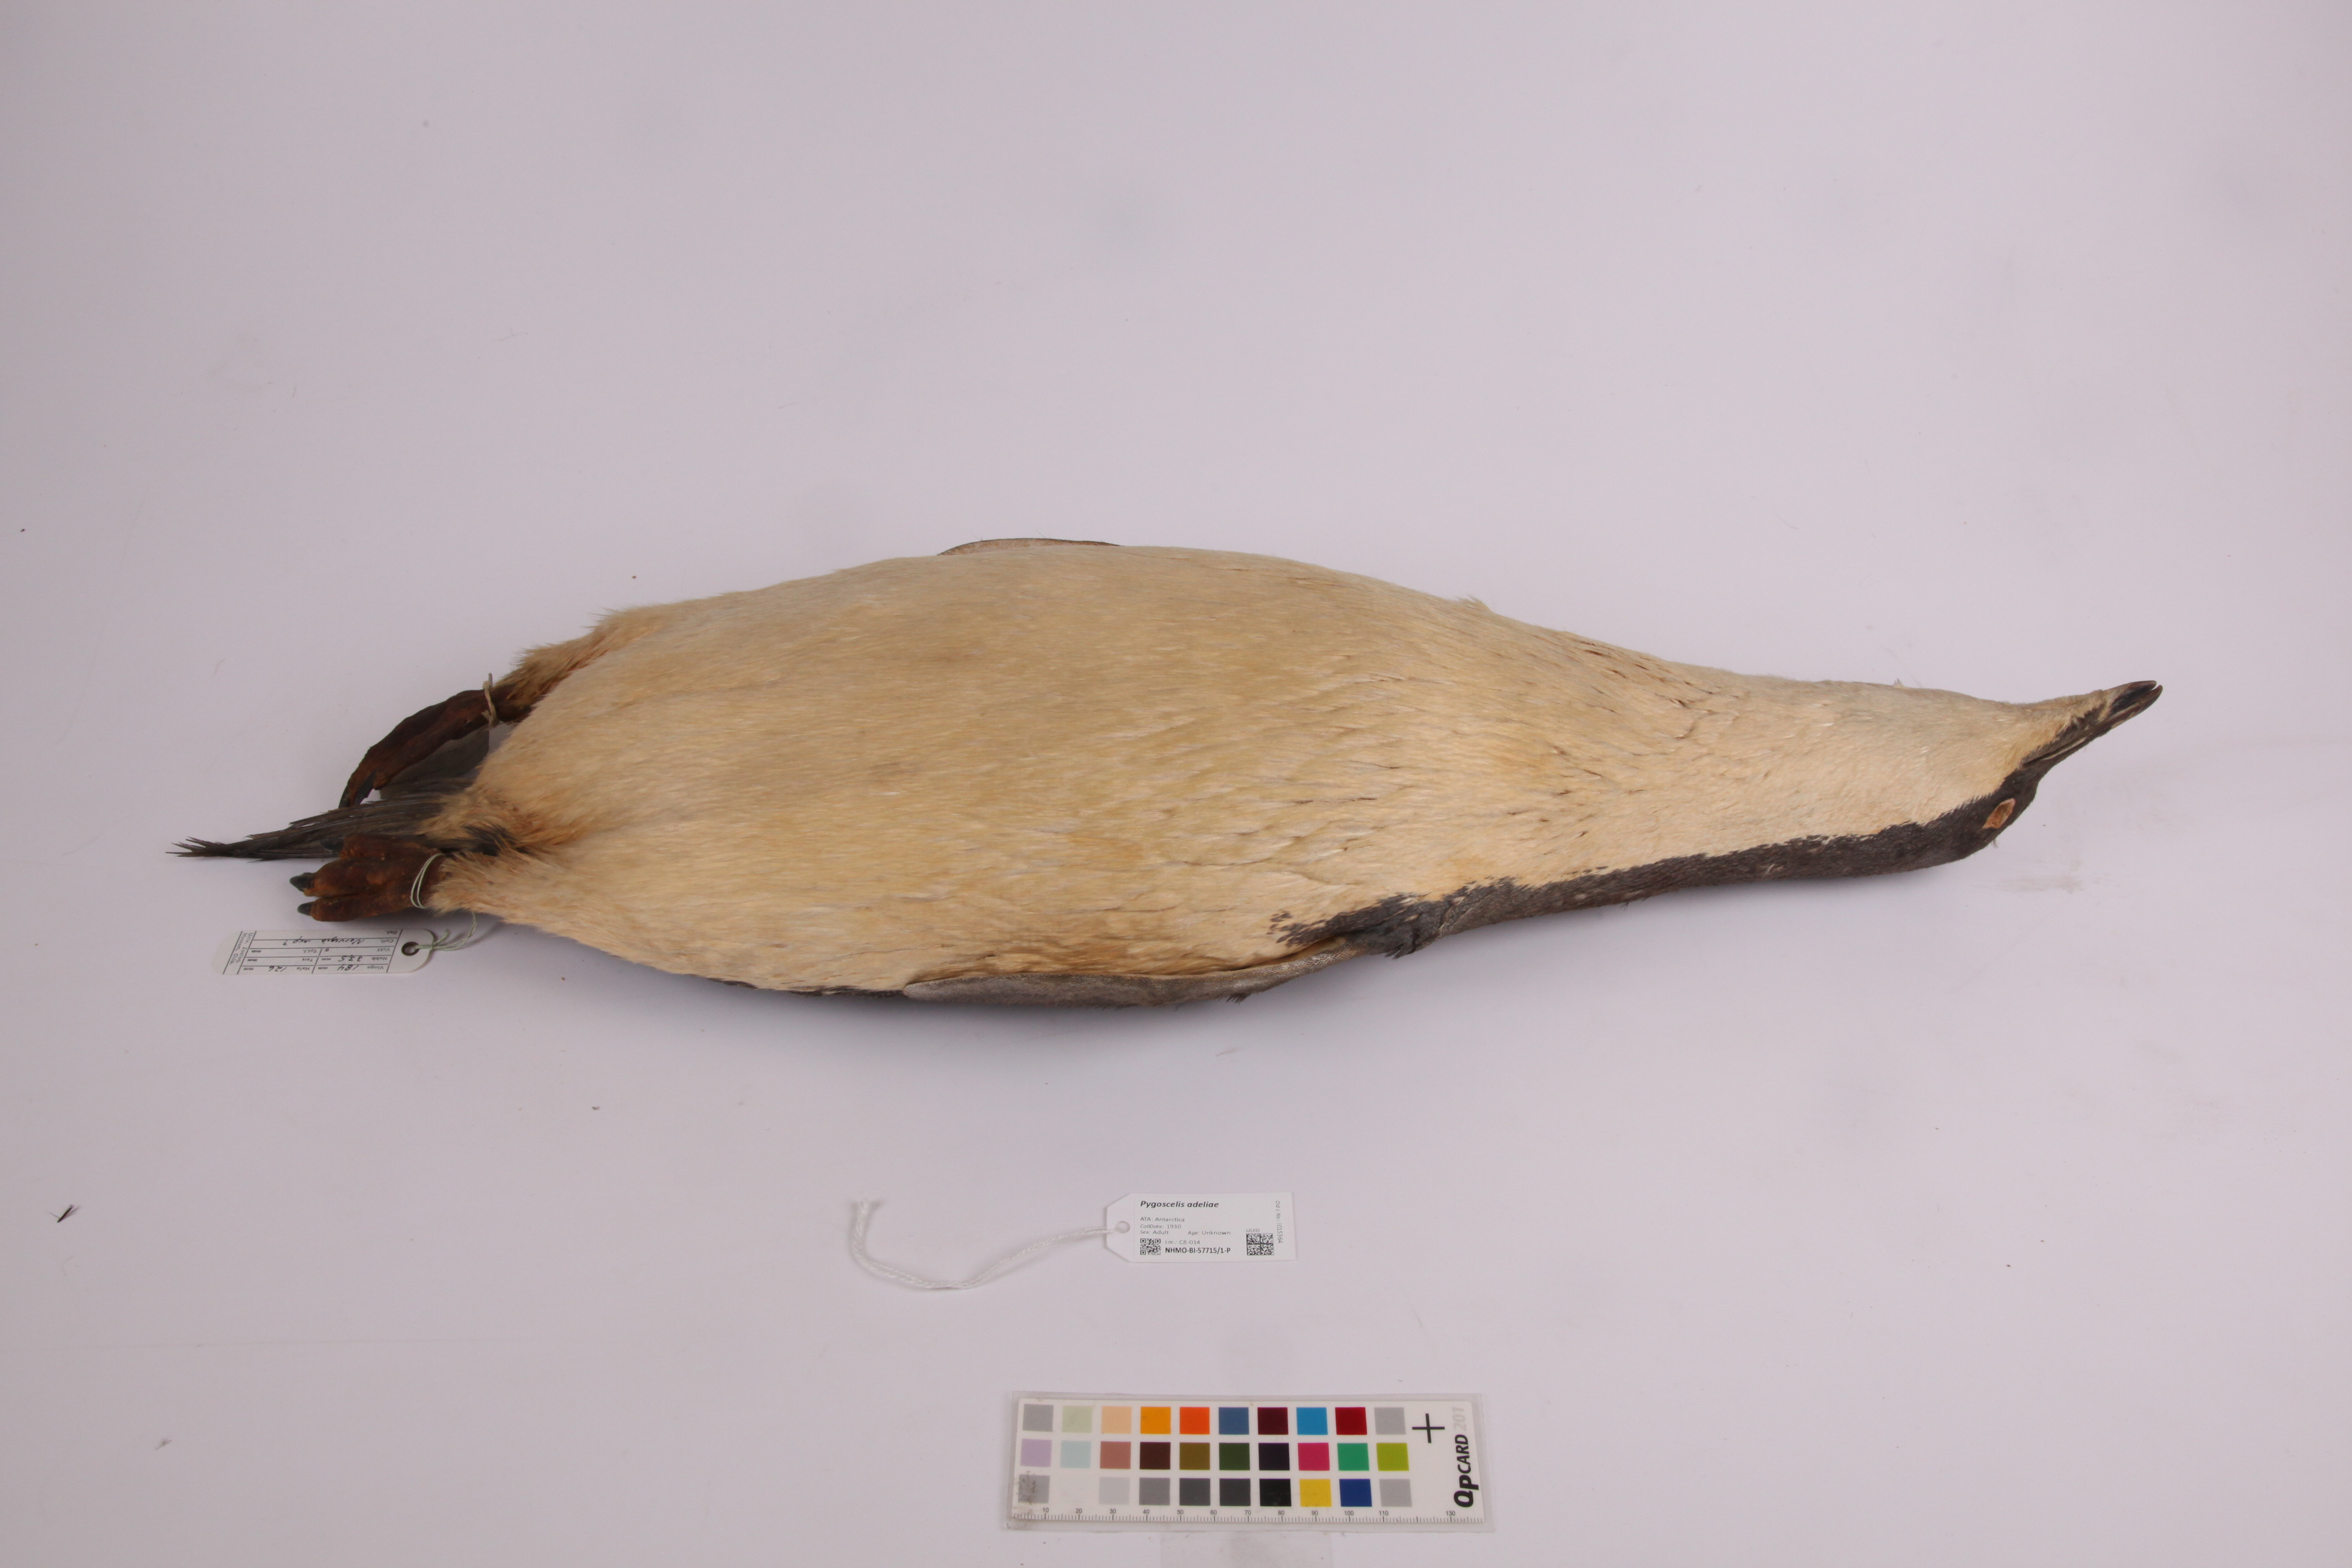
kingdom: Animalia
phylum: Chordata
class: Aves
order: Sphenisciformes
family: Spheniscidae
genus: Pygoscelis
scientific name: Pygoscelis adeliae
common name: Adelie penguin
